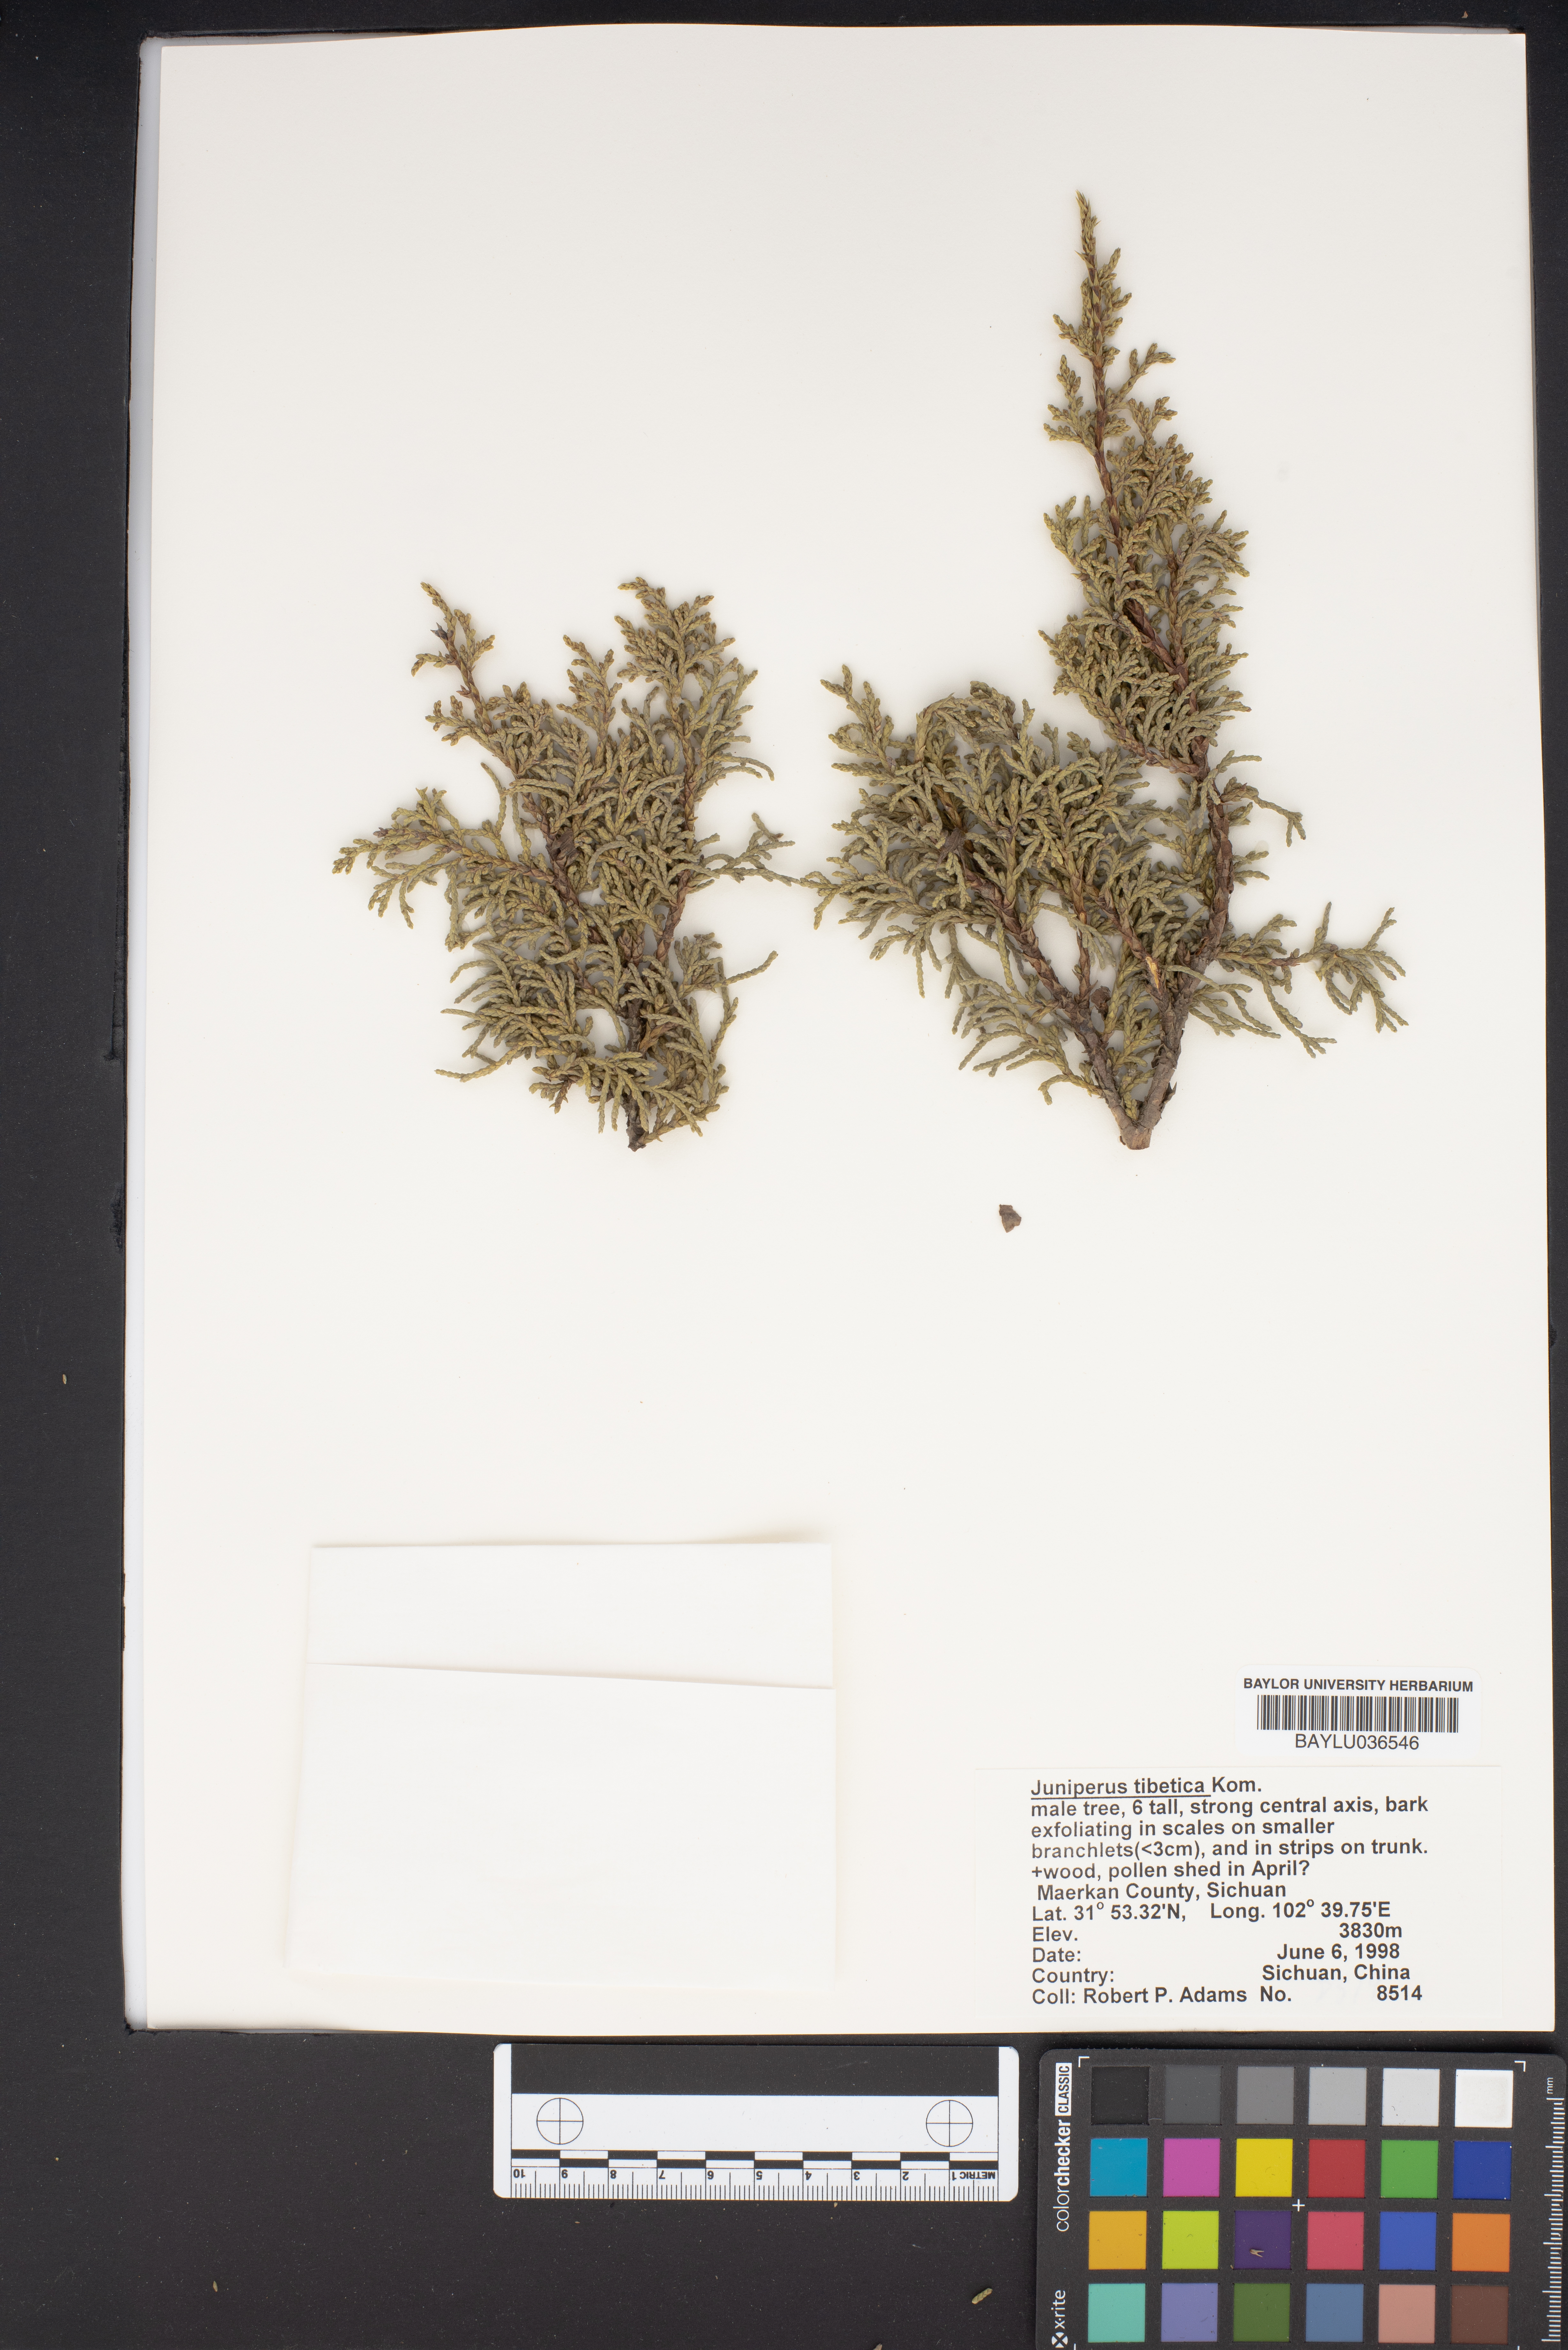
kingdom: Plantae
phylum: Tracheophyta
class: Pinopsida
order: Pinales
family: Cupressaceae
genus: Juniperus
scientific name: Juniperus tibetica
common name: Tibetan juniper
